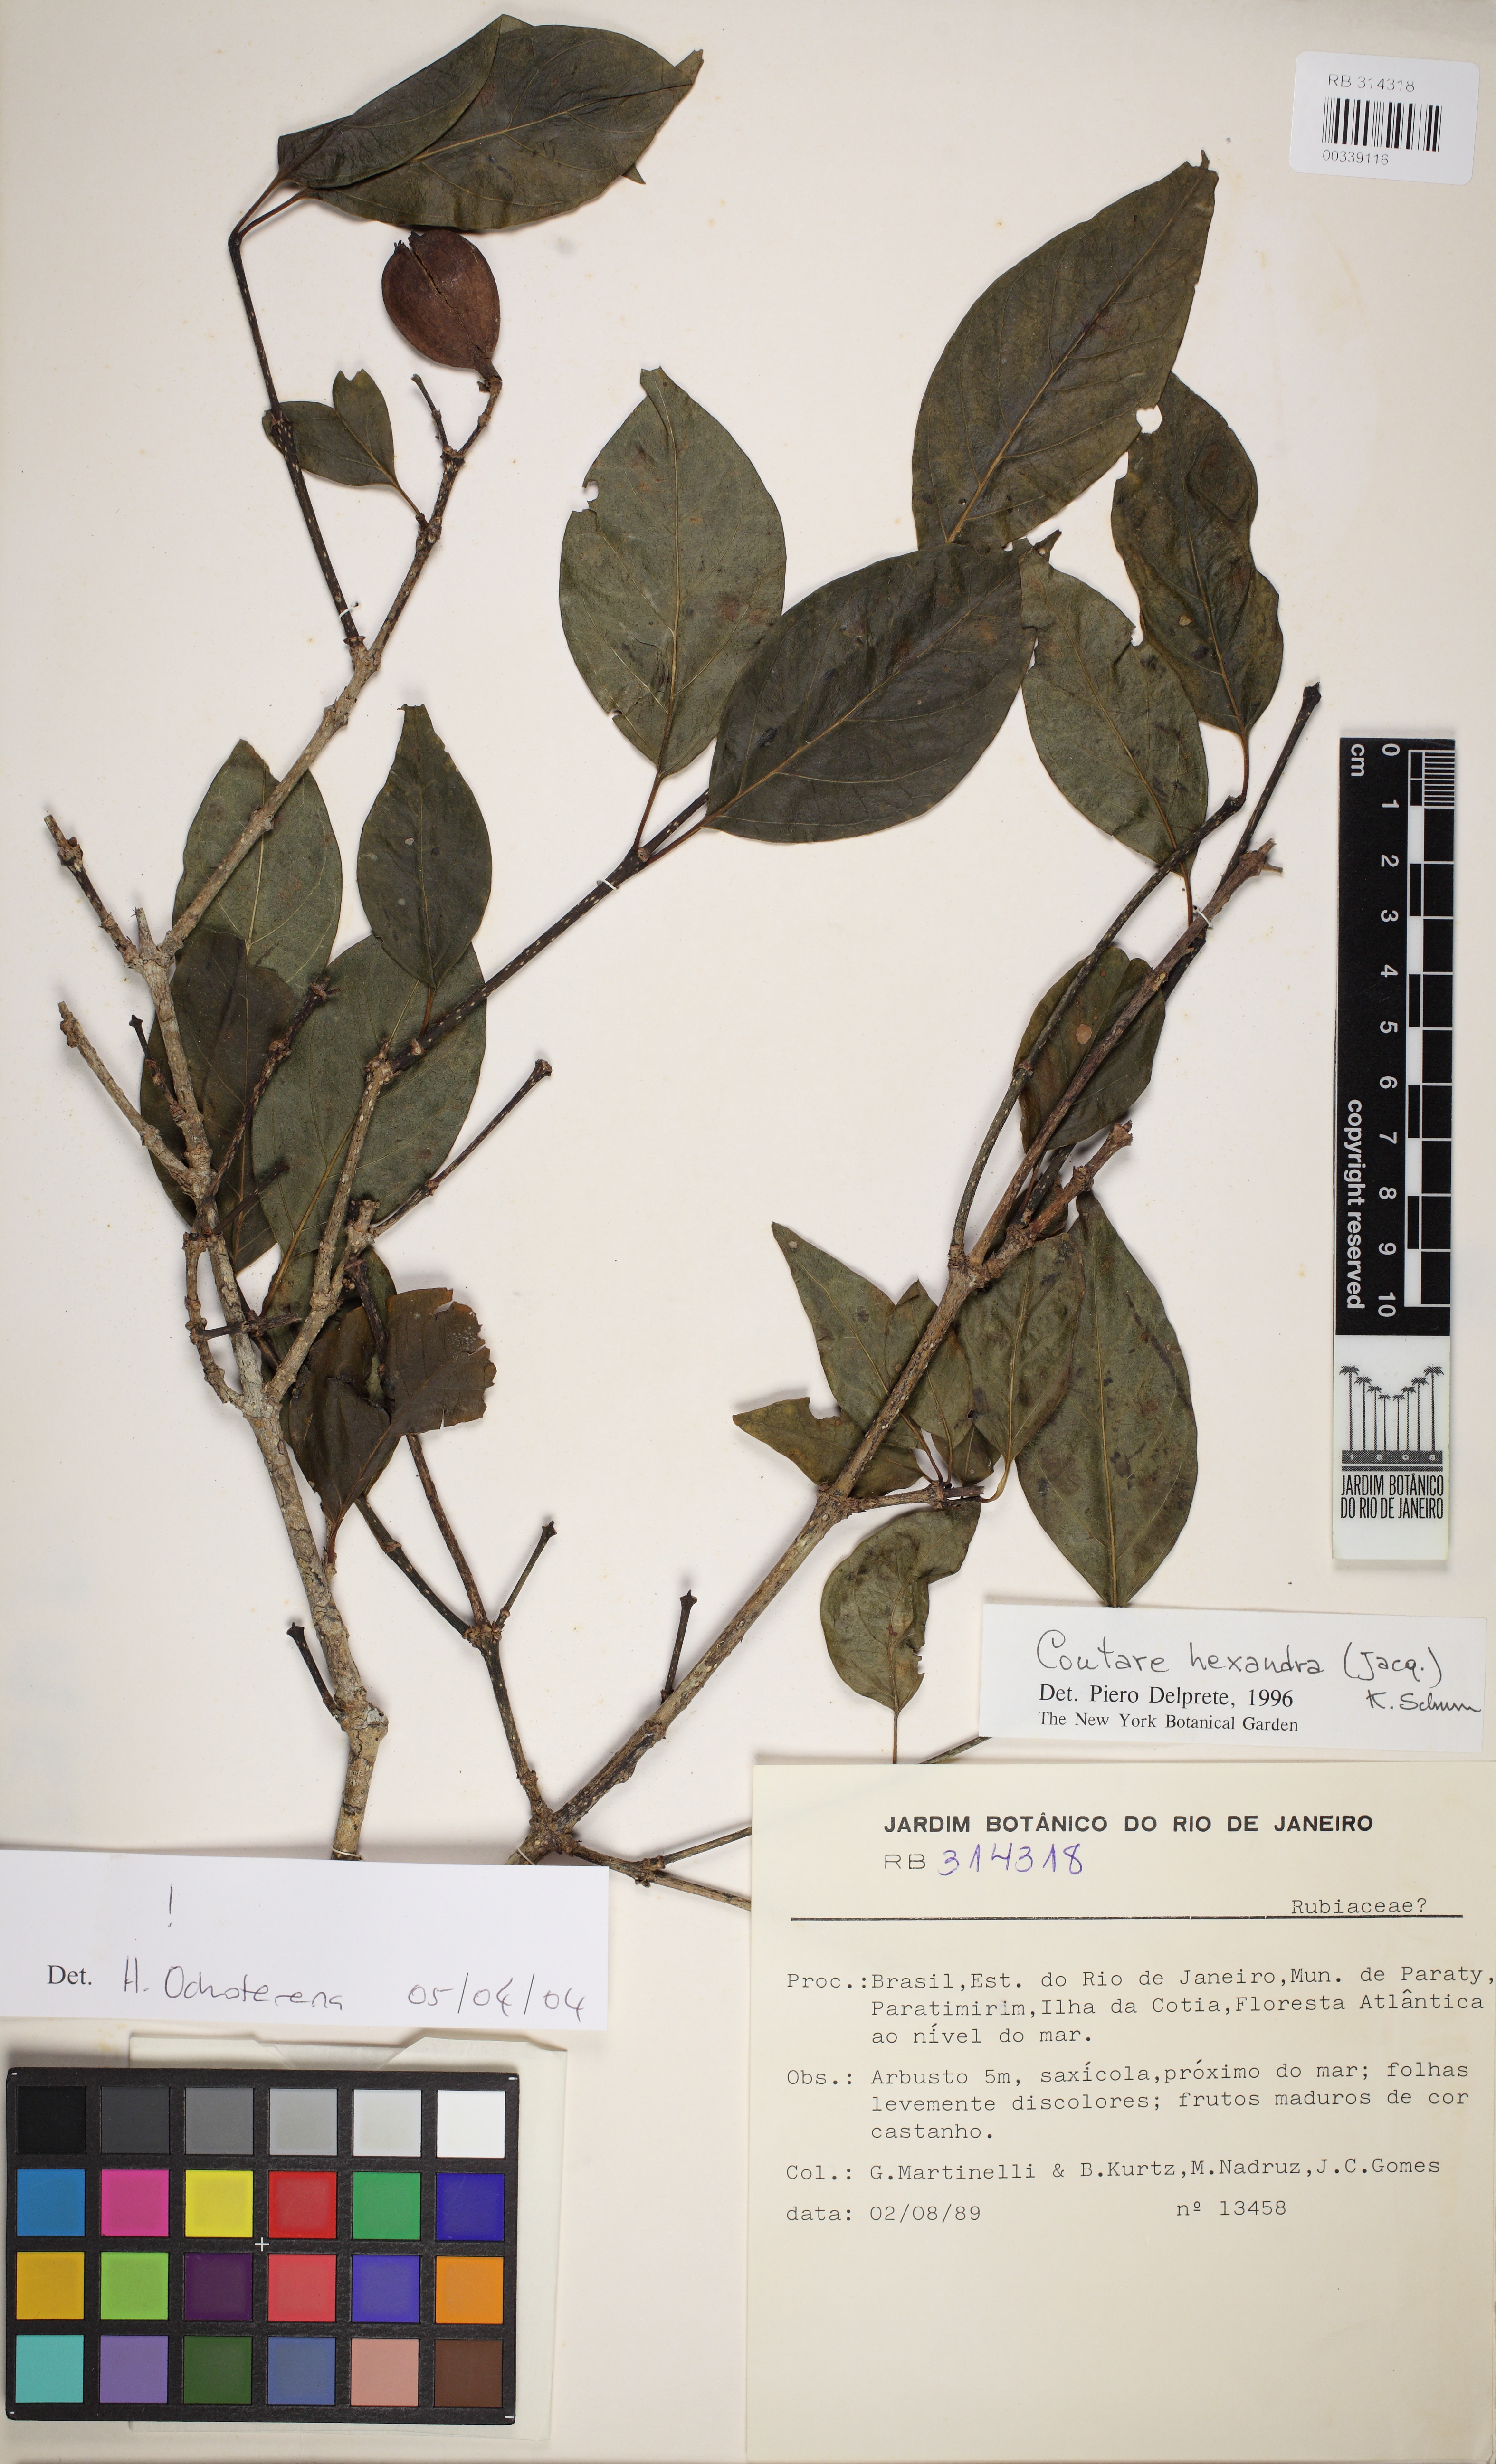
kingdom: Plantae
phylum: Tracheophyta
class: Magnoliopsida
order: Gentianales
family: Rubiaceae
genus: Coutarea
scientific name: Coutarea hexandra
